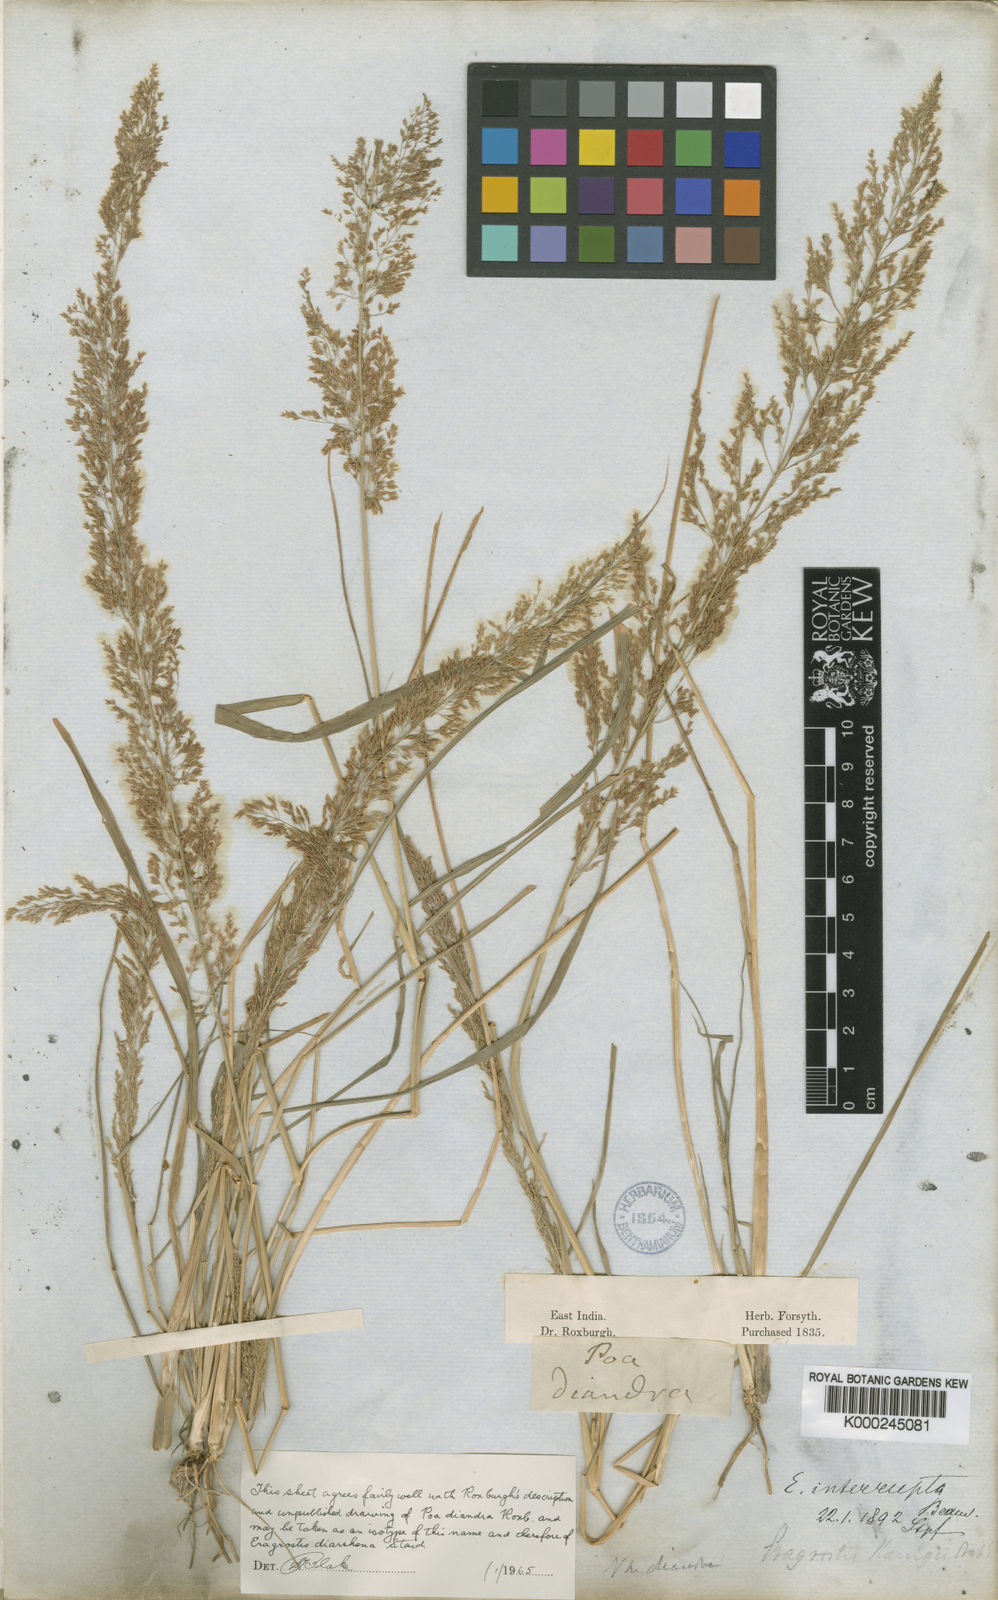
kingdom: Plantae
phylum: Tracheophyta
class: Liliopsida
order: Poales
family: Poaceae
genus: Eragrostis
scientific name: Eragrostis japonica
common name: Pond lovegrass
